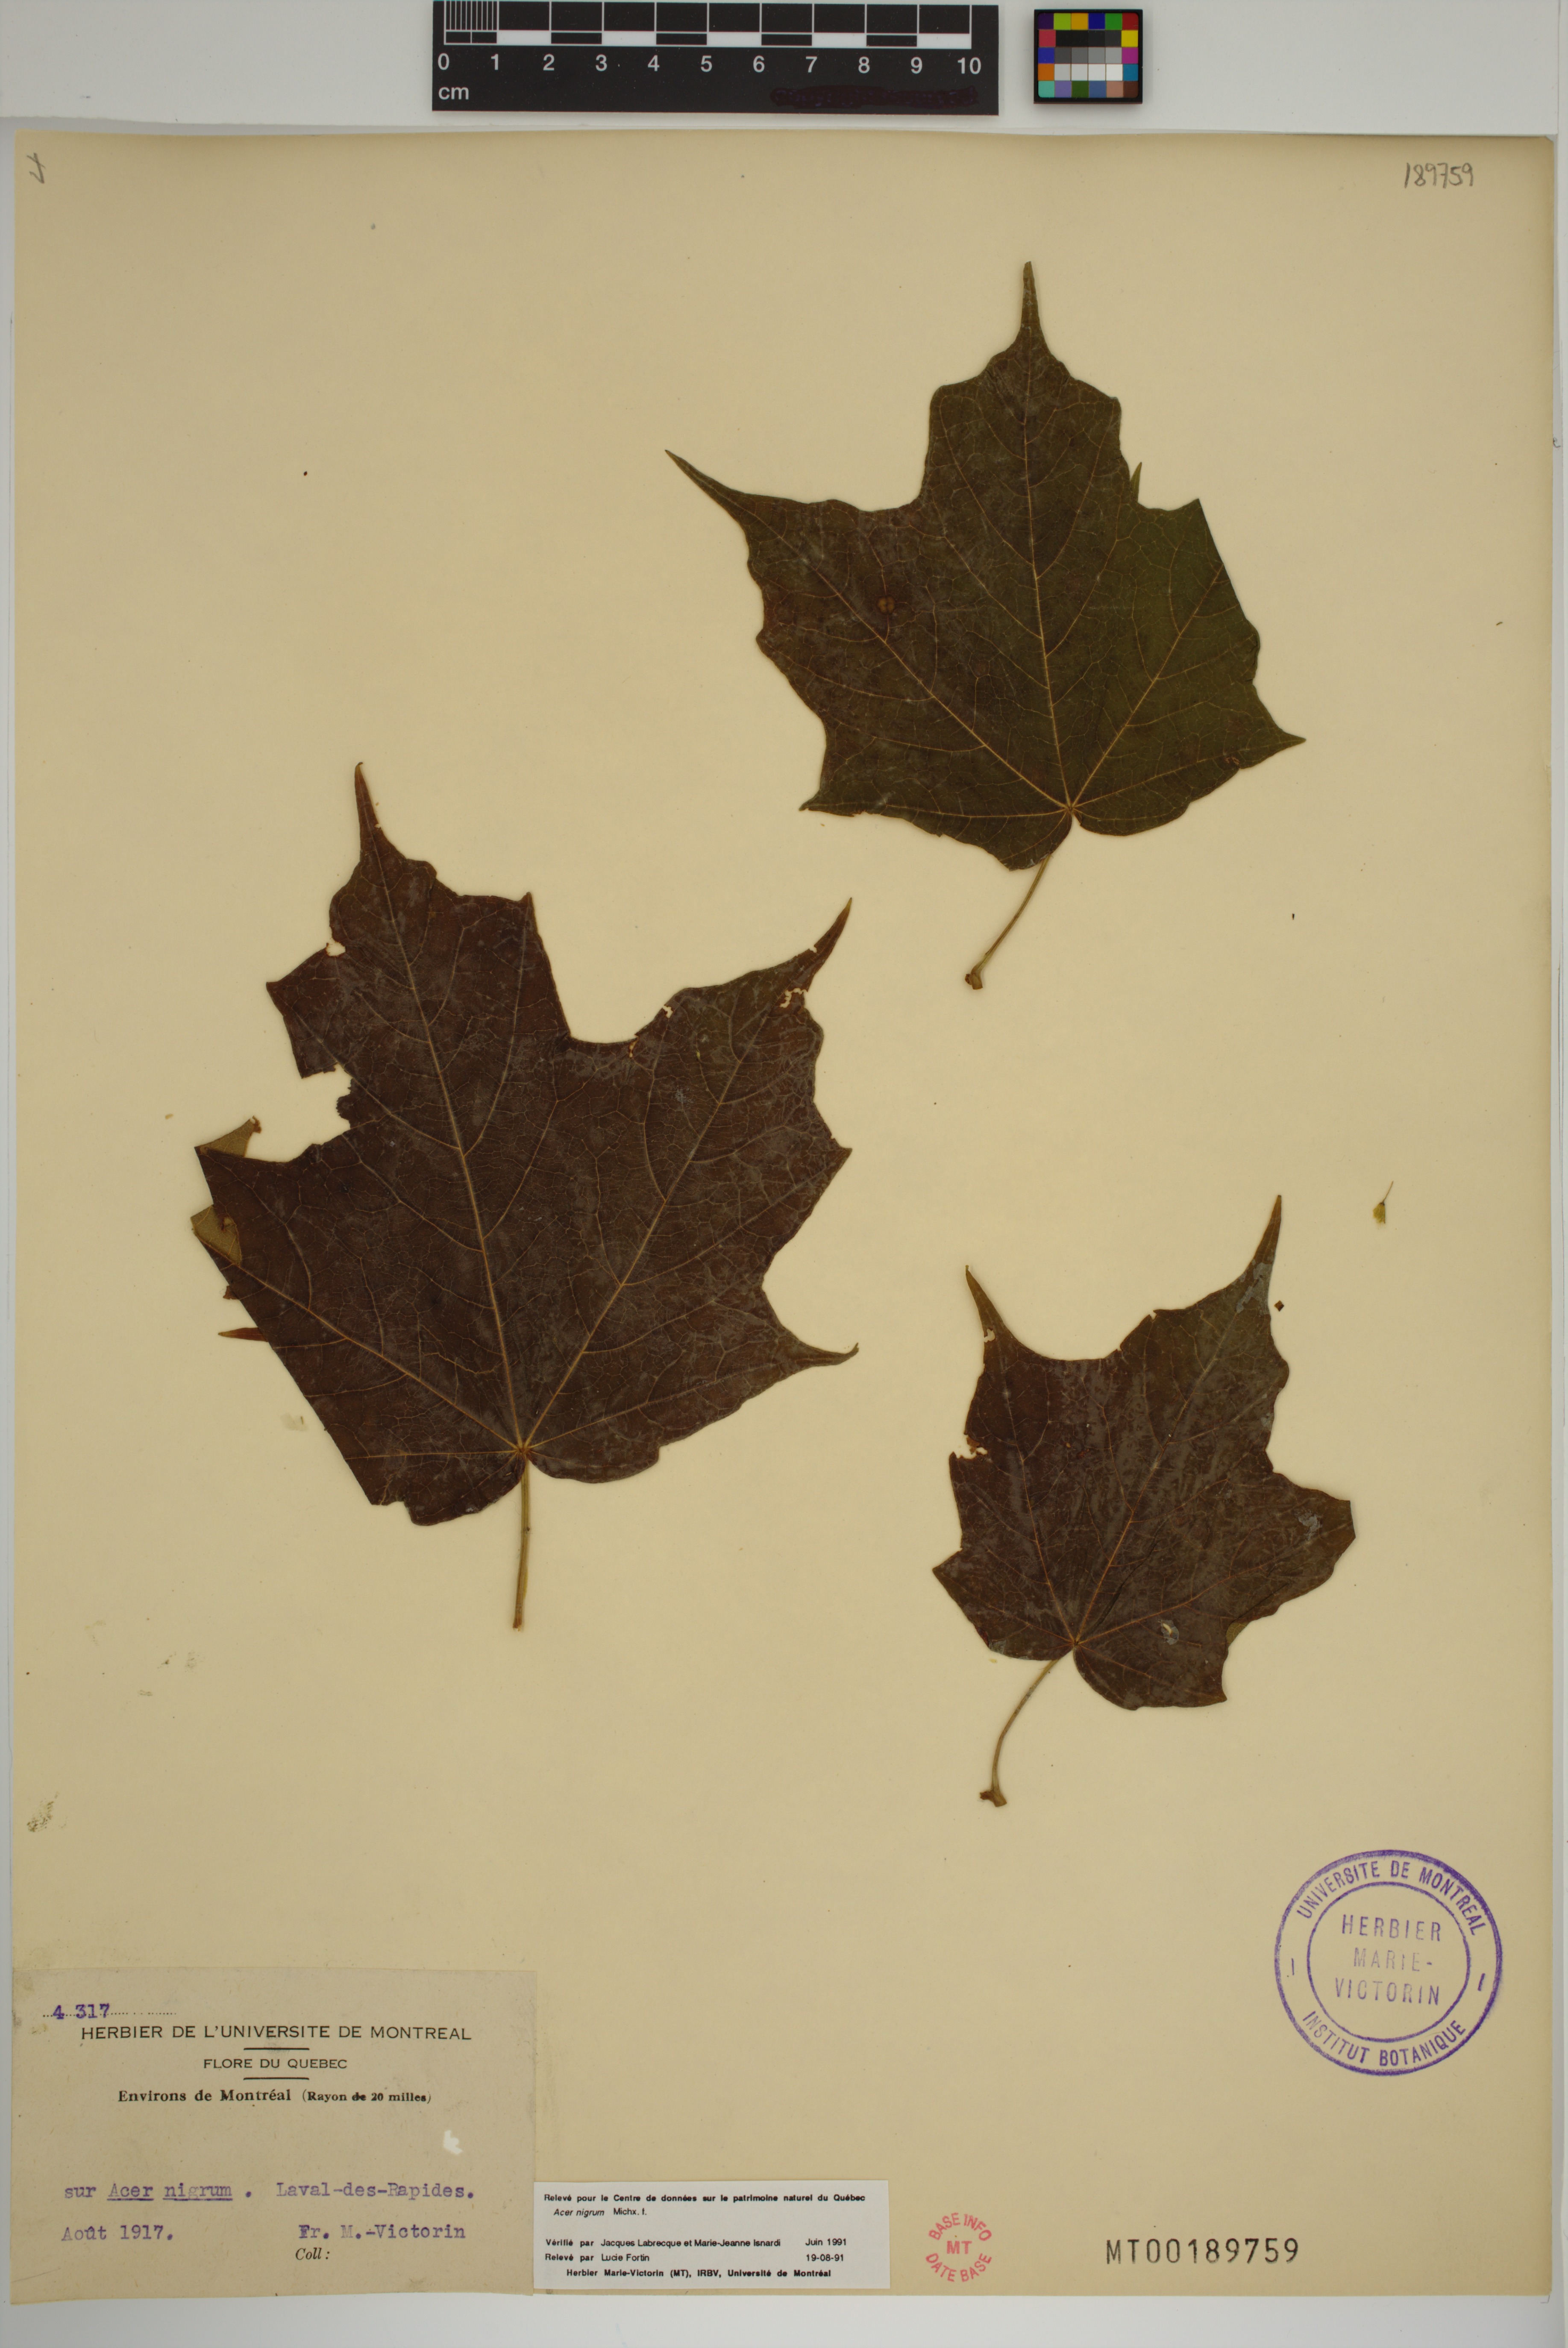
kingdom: Plantae
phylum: Tracheophyta
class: Magnoliopsida
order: Sapindales
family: Sapindaceae
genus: Acer
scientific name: Acer nigrum
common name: Black maple
